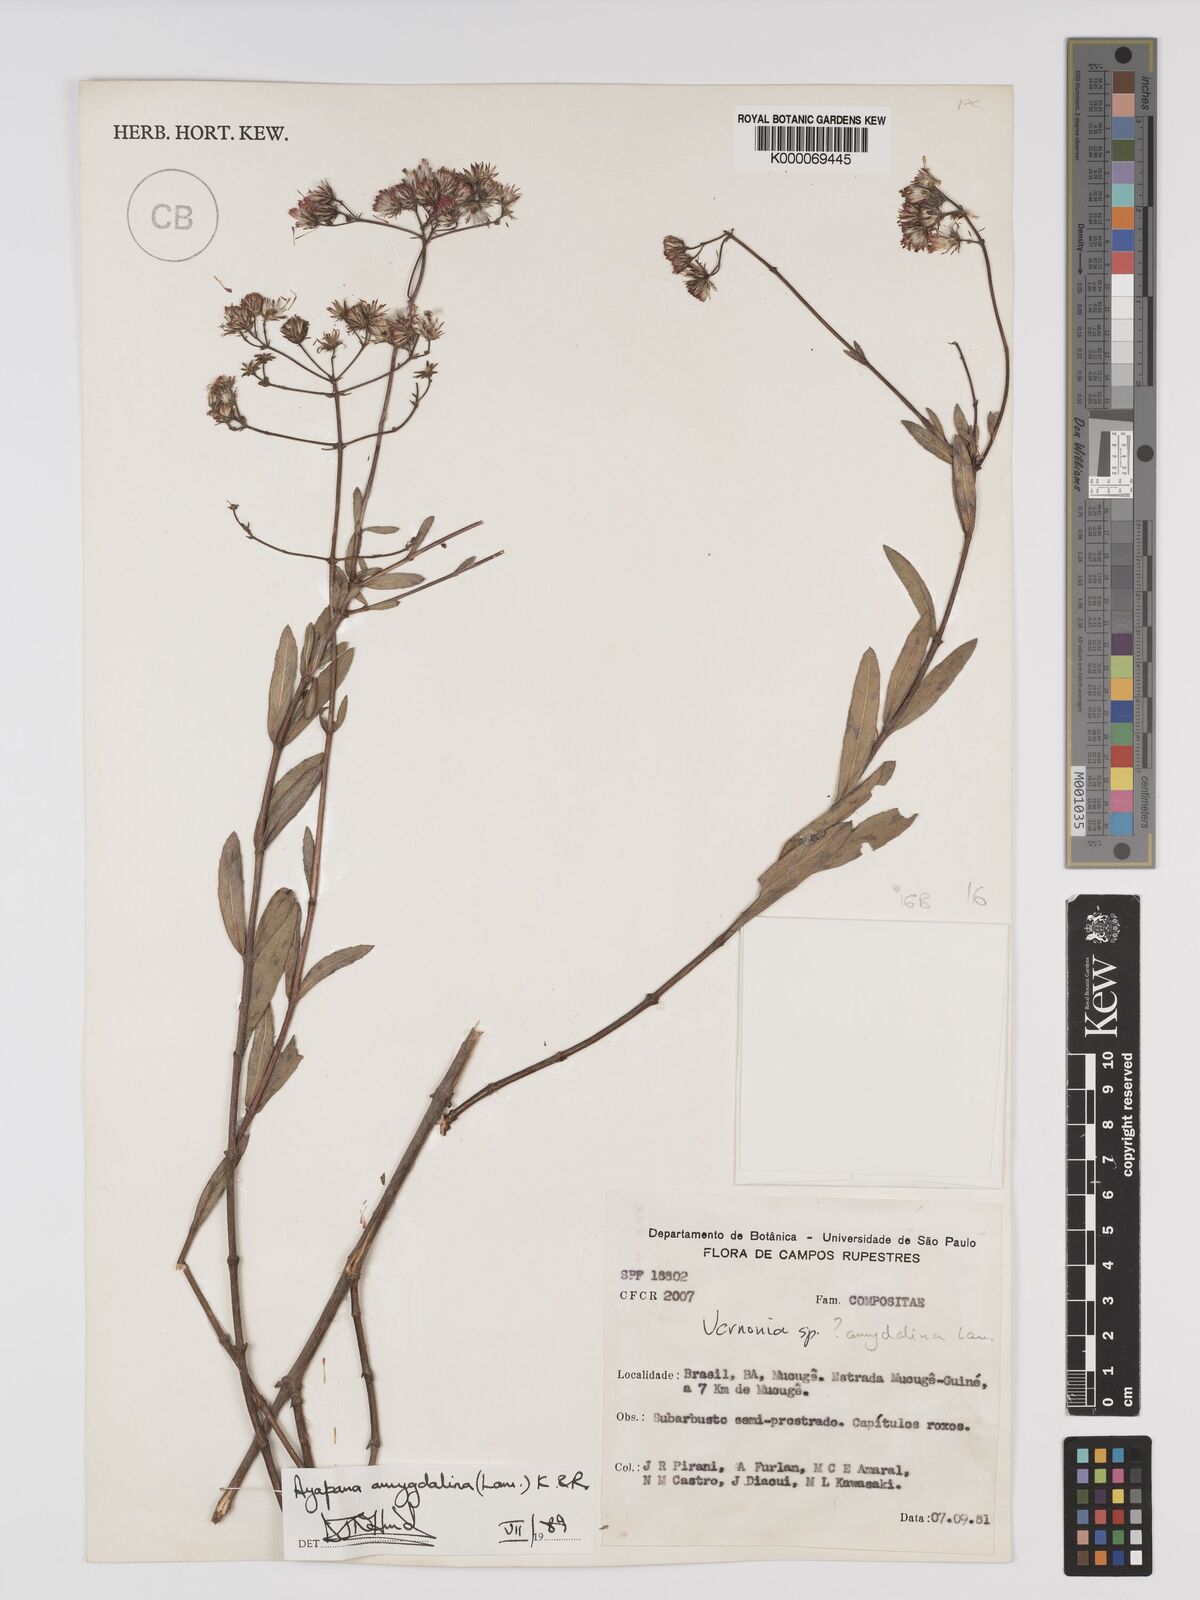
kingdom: Plantae
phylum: Tracheophyta
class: Magnoliopsida
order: Asterales
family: Asteraceae
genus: Ayapana
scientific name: Ayapana amygdalina
